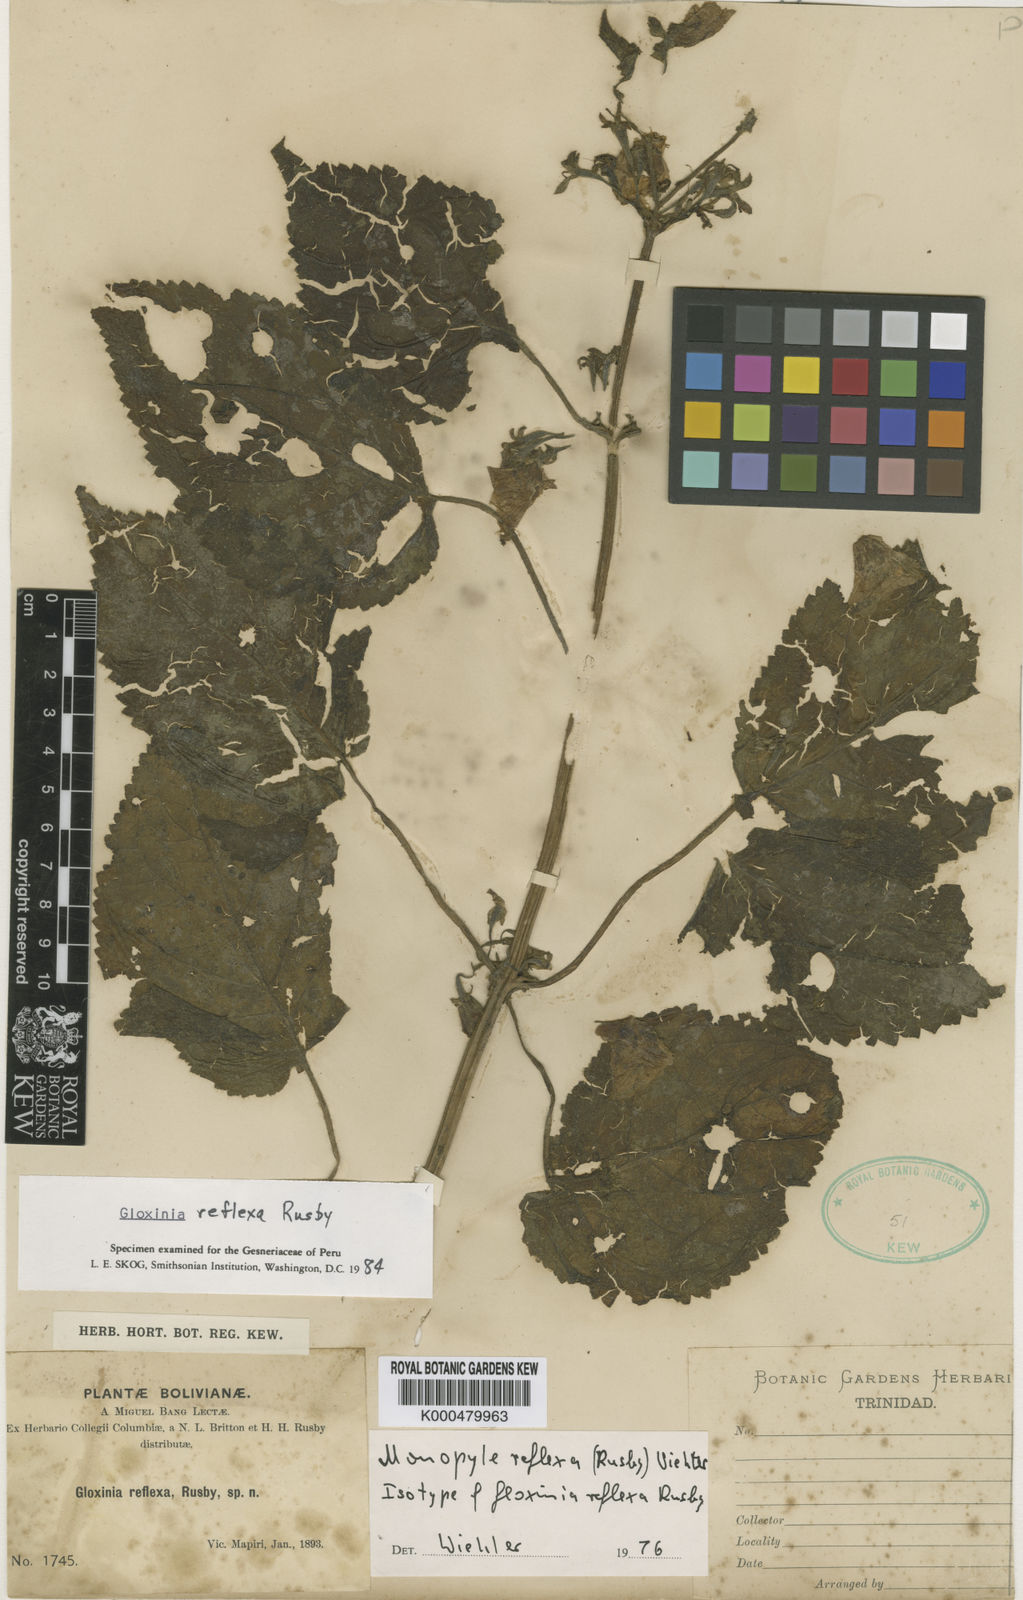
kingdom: Plantae
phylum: Tracheophyta
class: Magnoliopsida
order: Lamiales
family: Gesneriaceae
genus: Monopyle
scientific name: Monopyle reflexa
